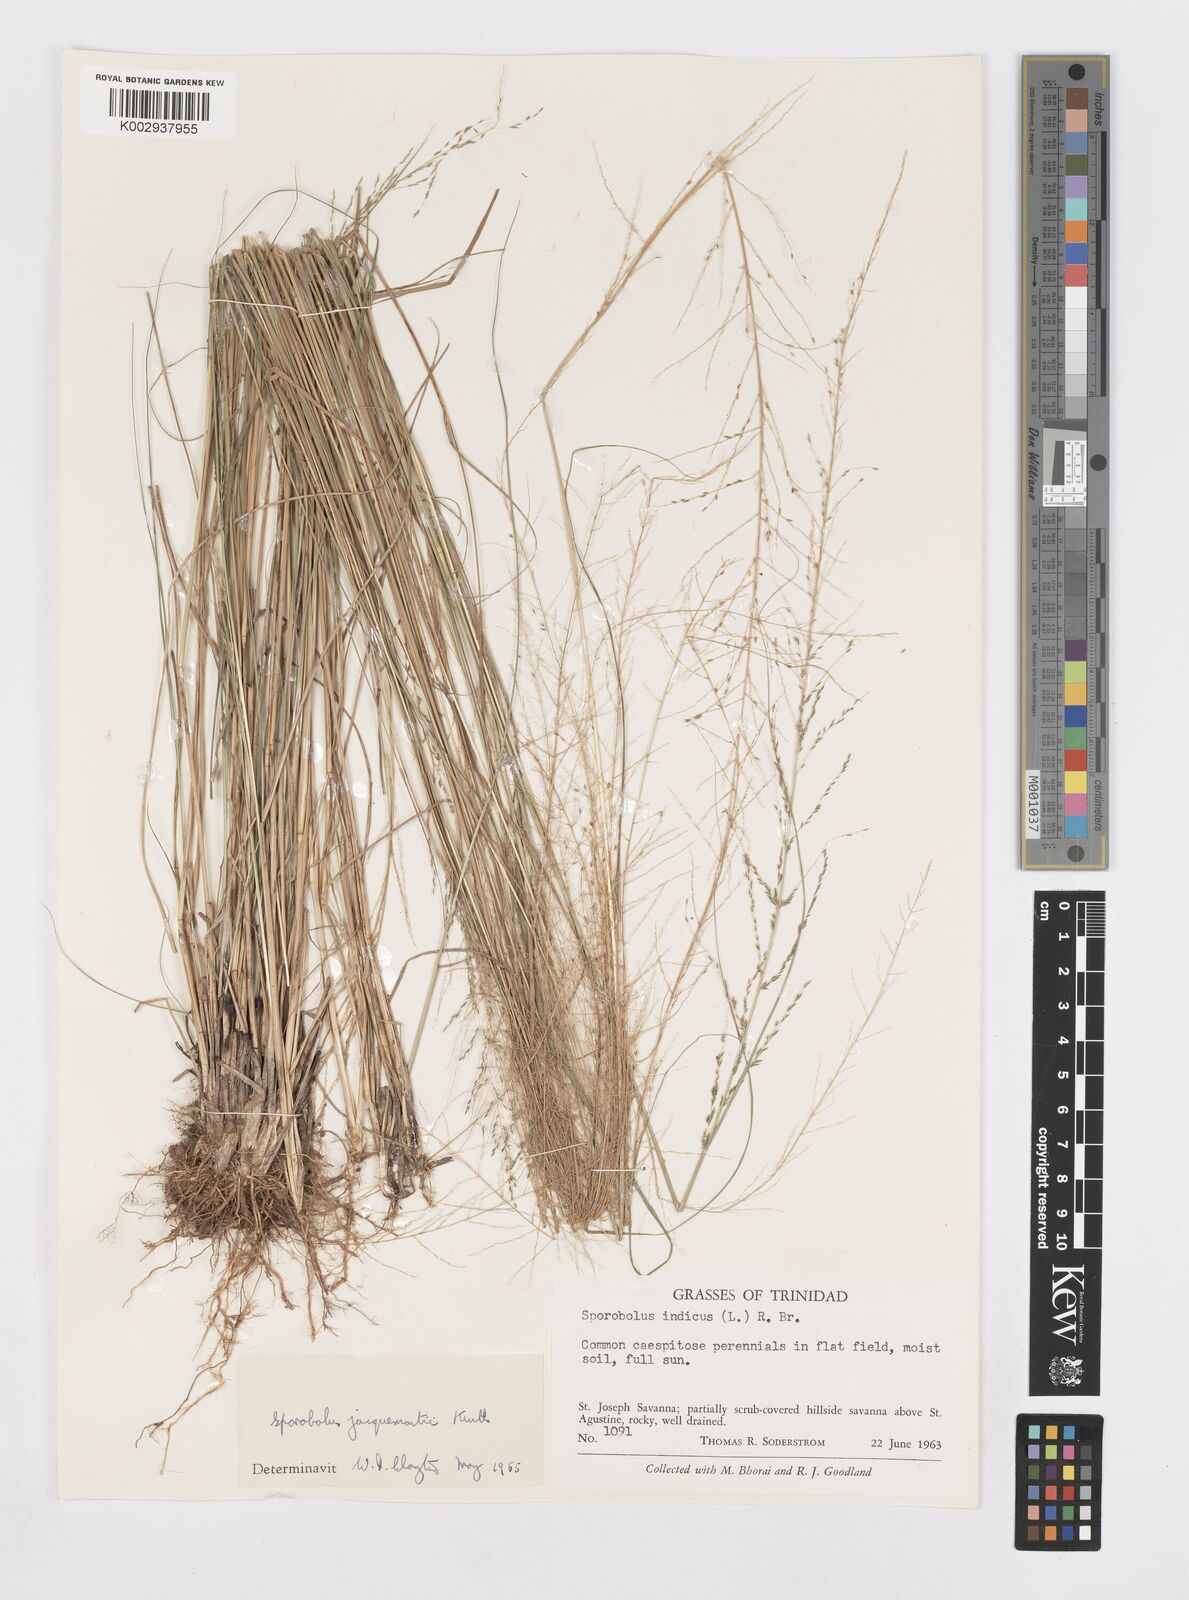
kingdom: Plantae
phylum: Tracheophyta
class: Liliopsida
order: Poales
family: Poaceae
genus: Sporobolus
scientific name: Sporobolus pyramidalis
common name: West indian dropseed
